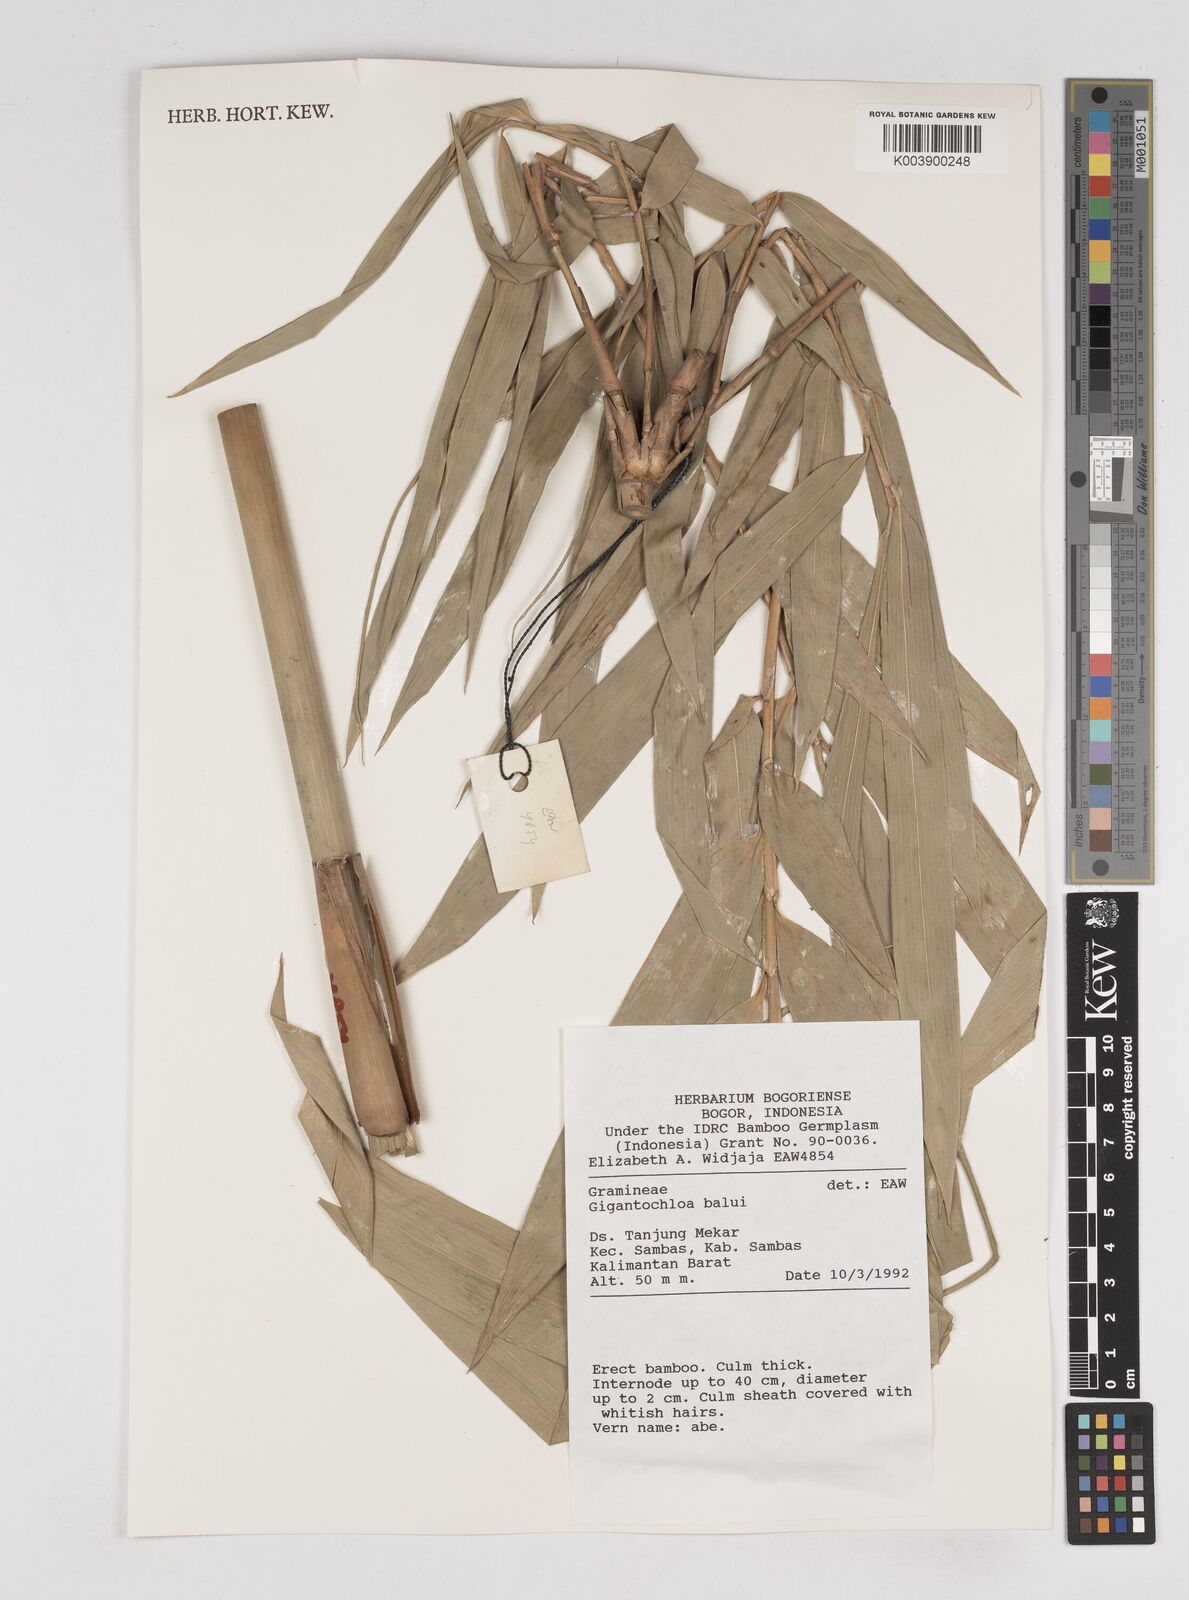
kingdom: Plantae
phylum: Tracheophyta
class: Liliopsida
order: Poales
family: Poaceae
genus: Gigantochloa
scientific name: Gigantochloa balui
